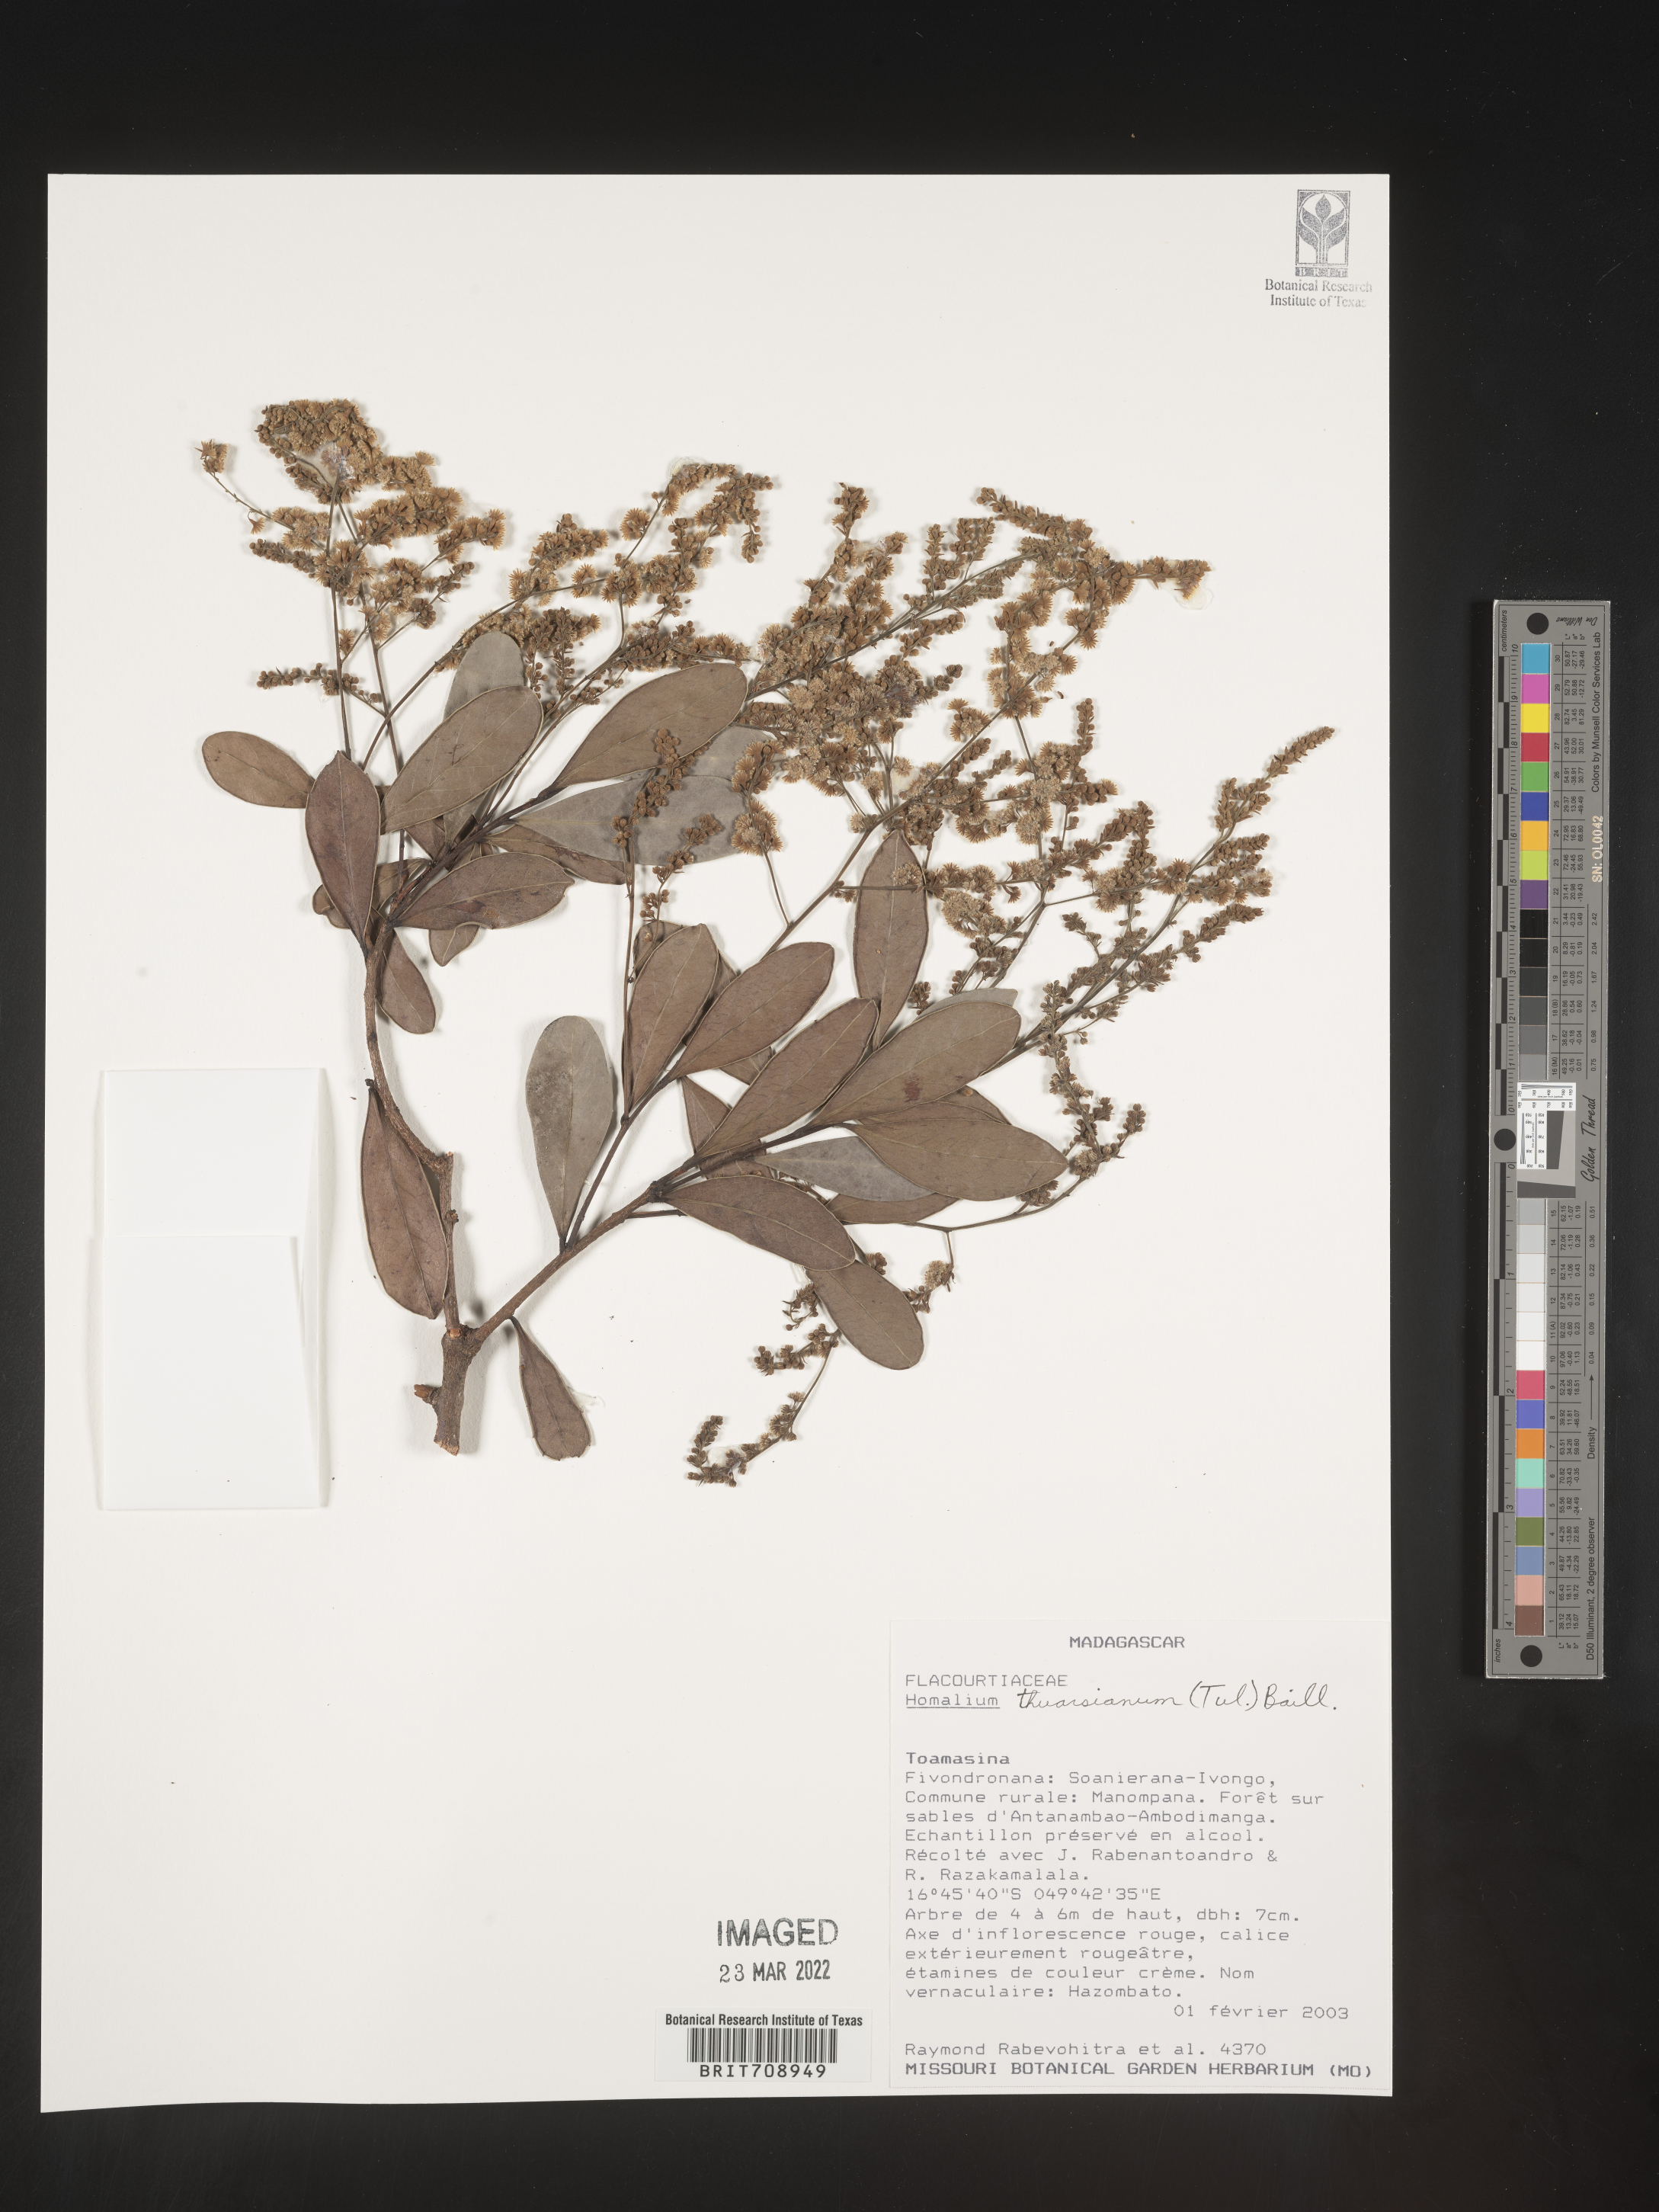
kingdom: Plantae
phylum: Tracheophyta
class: Magnoliopsida
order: Malpighiales
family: Salicaceae
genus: Homalium
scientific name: Homalium
